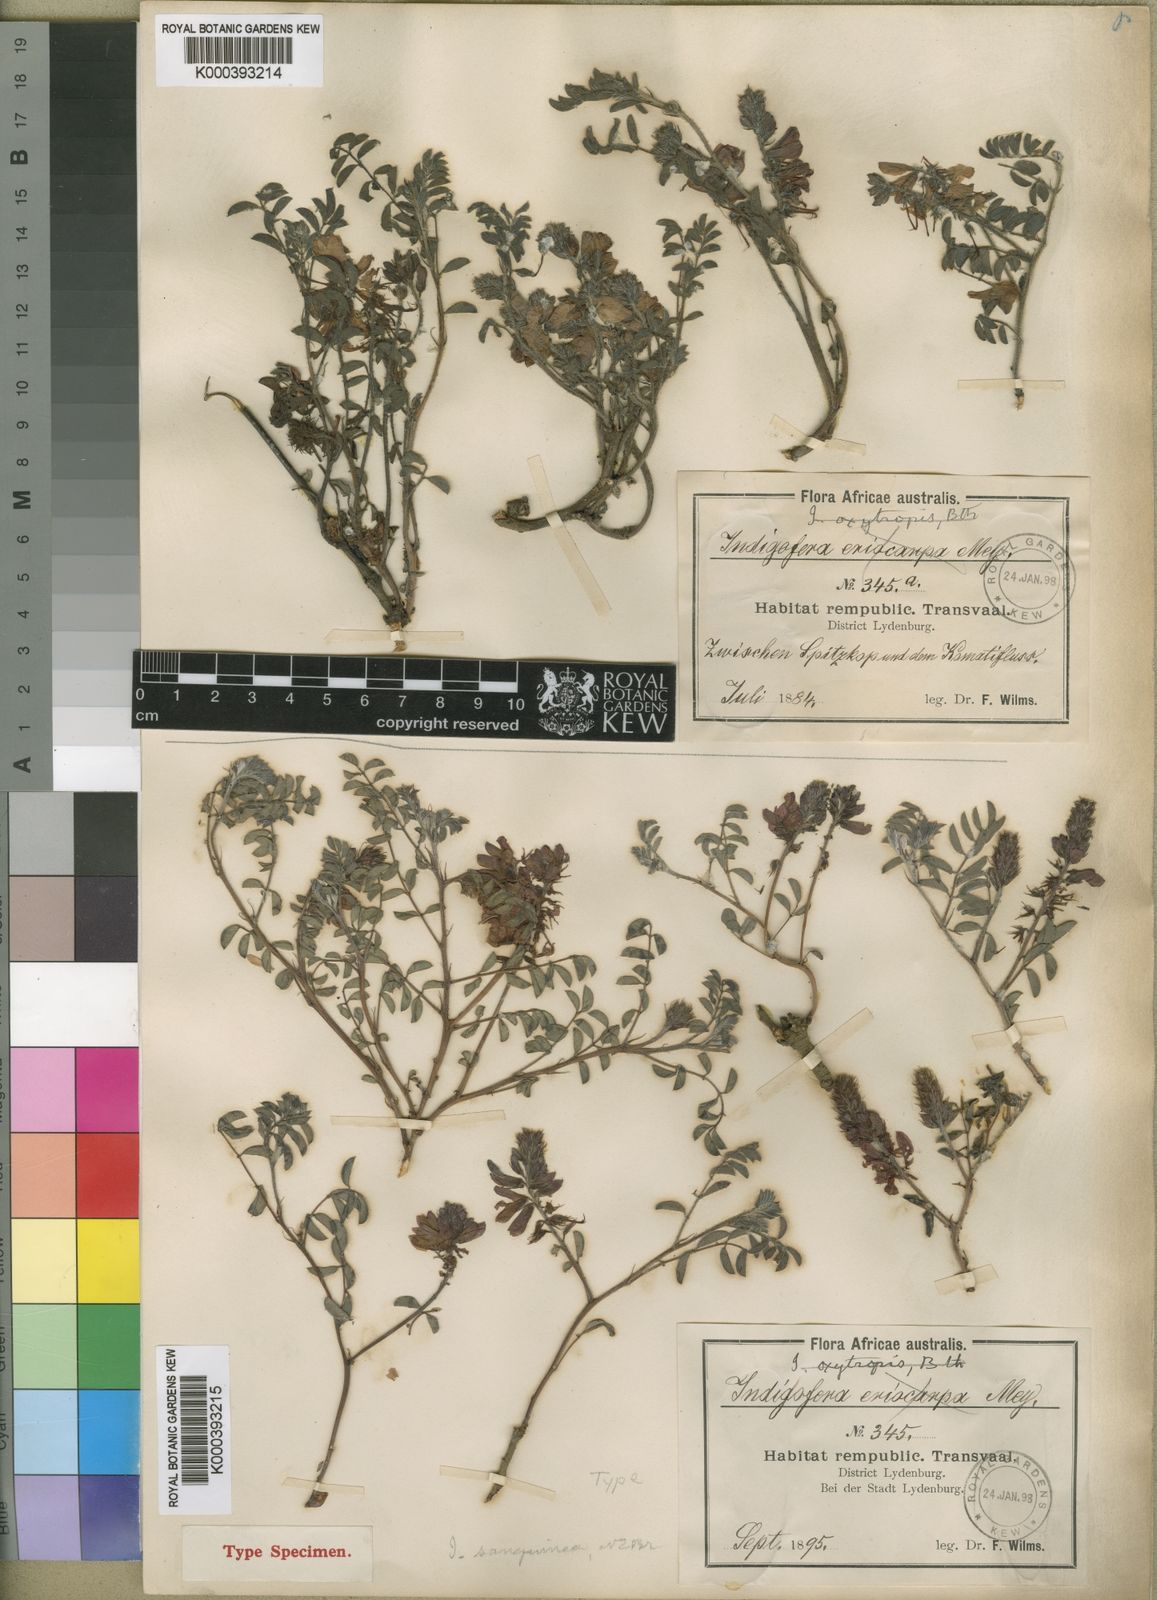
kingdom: Plantae
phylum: Tracheophyta
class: Magnoliopsida
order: Fabales
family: Fabaceae
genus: Indigofera
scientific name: Indigofera sanguinea
